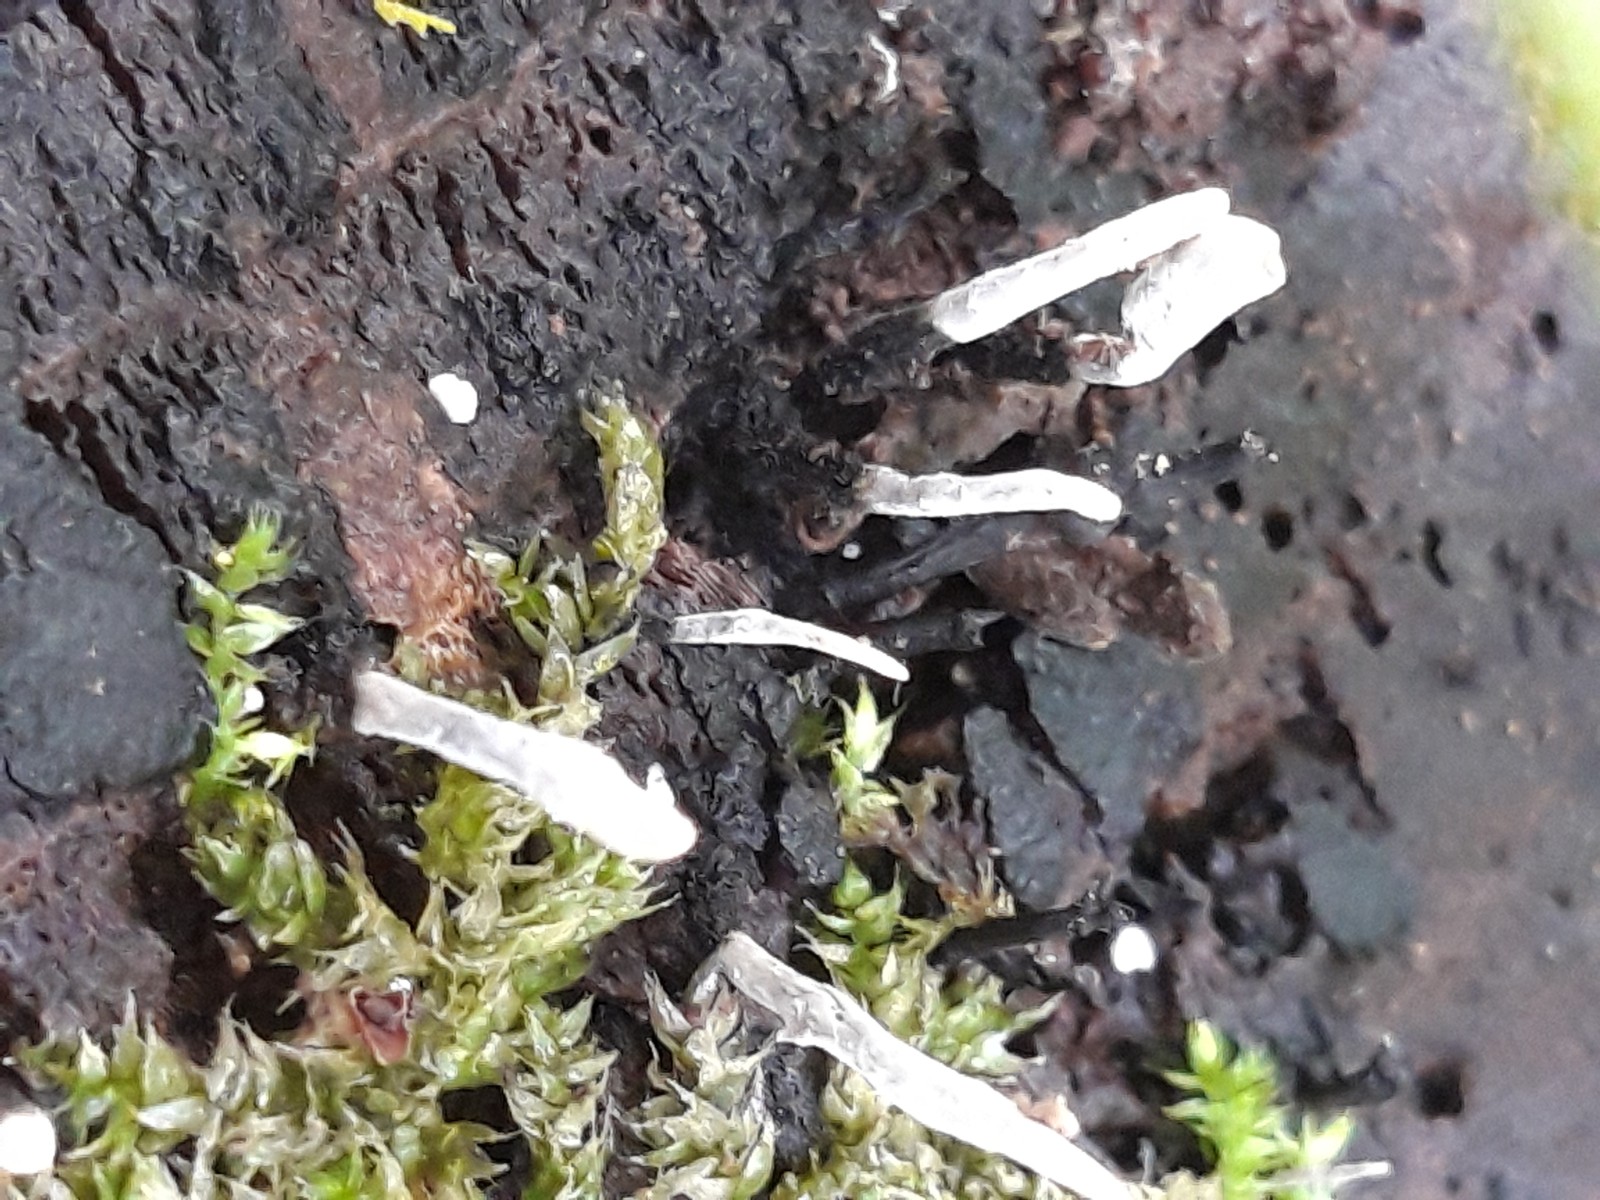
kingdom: Fungi
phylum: Ascomycota
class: Sordariomycetes
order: Xylariales
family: Xylariaceae
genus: Xylaria
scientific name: Xylaria hypoxylon
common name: grenet stødsvamp
